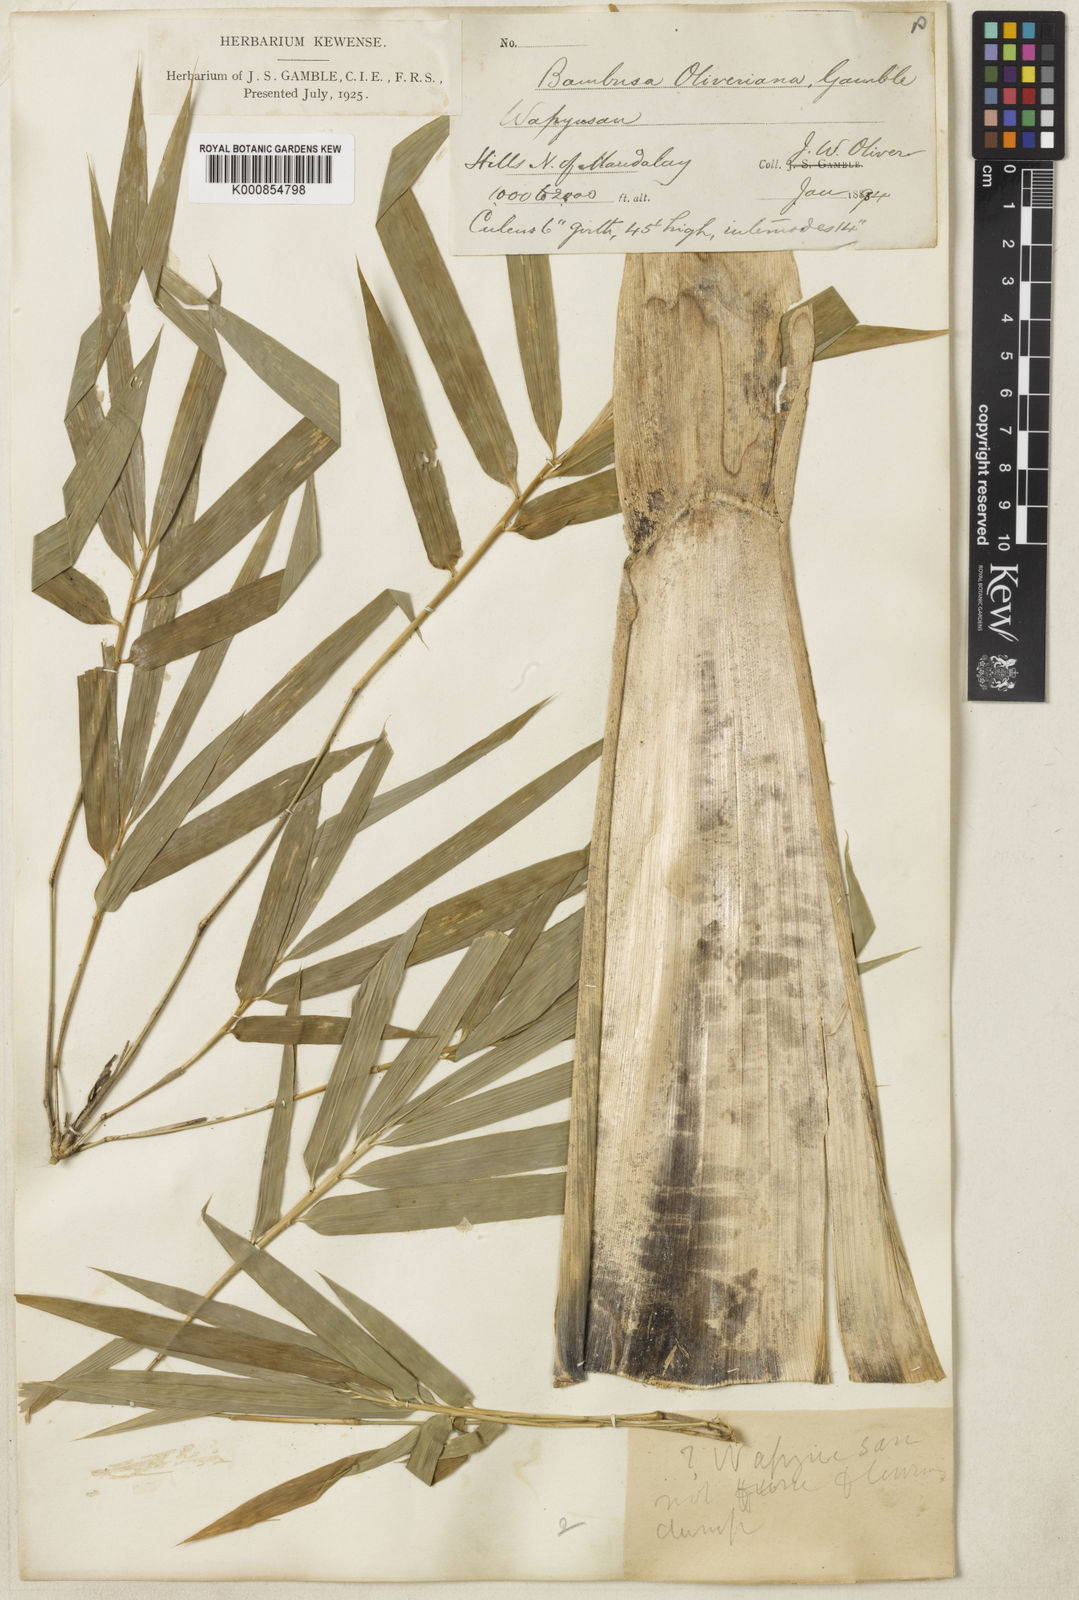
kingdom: Plantae
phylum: Tracheophyta
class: Liliopsida
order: Poales
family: Poaceae
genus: Bambusa
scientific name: Bambusa oliveriana
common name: Bush bamboo
